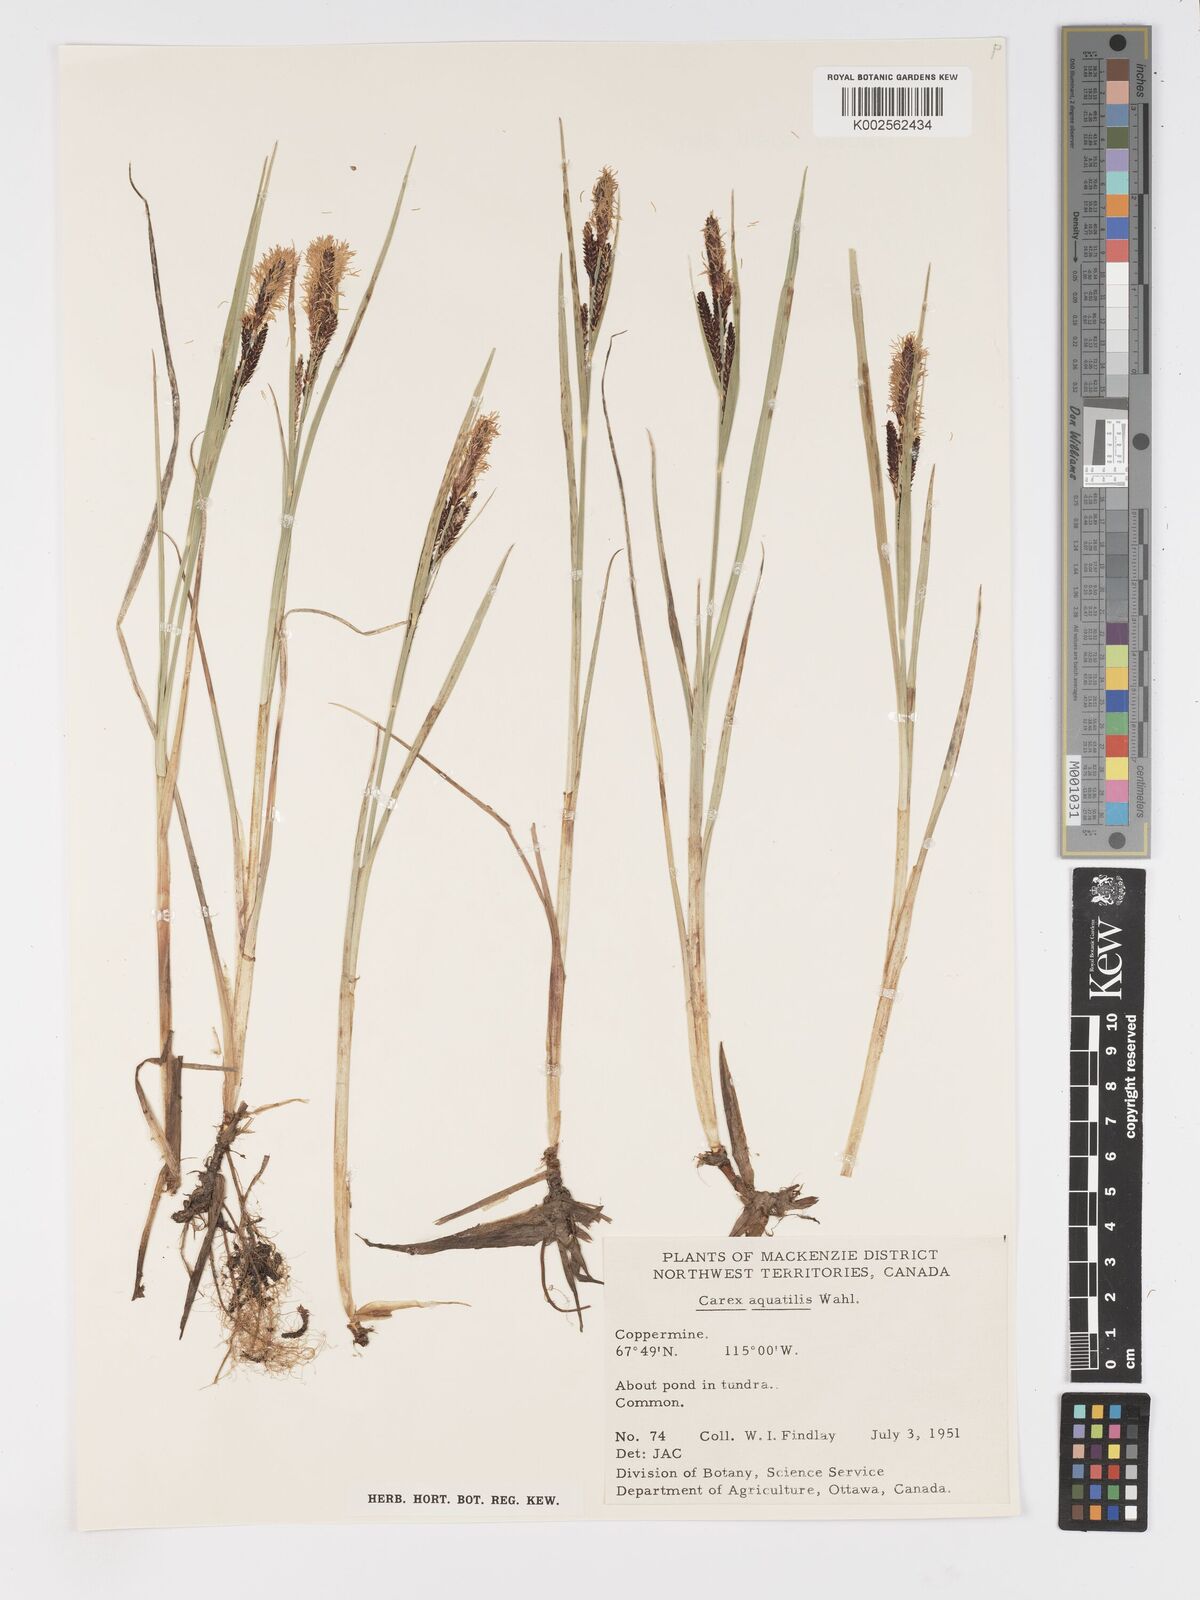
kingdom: Plantae
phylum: Tracheophyta
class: Liliopsida
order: Poales
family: Cyperaceae
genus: Carex
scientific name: Carex
